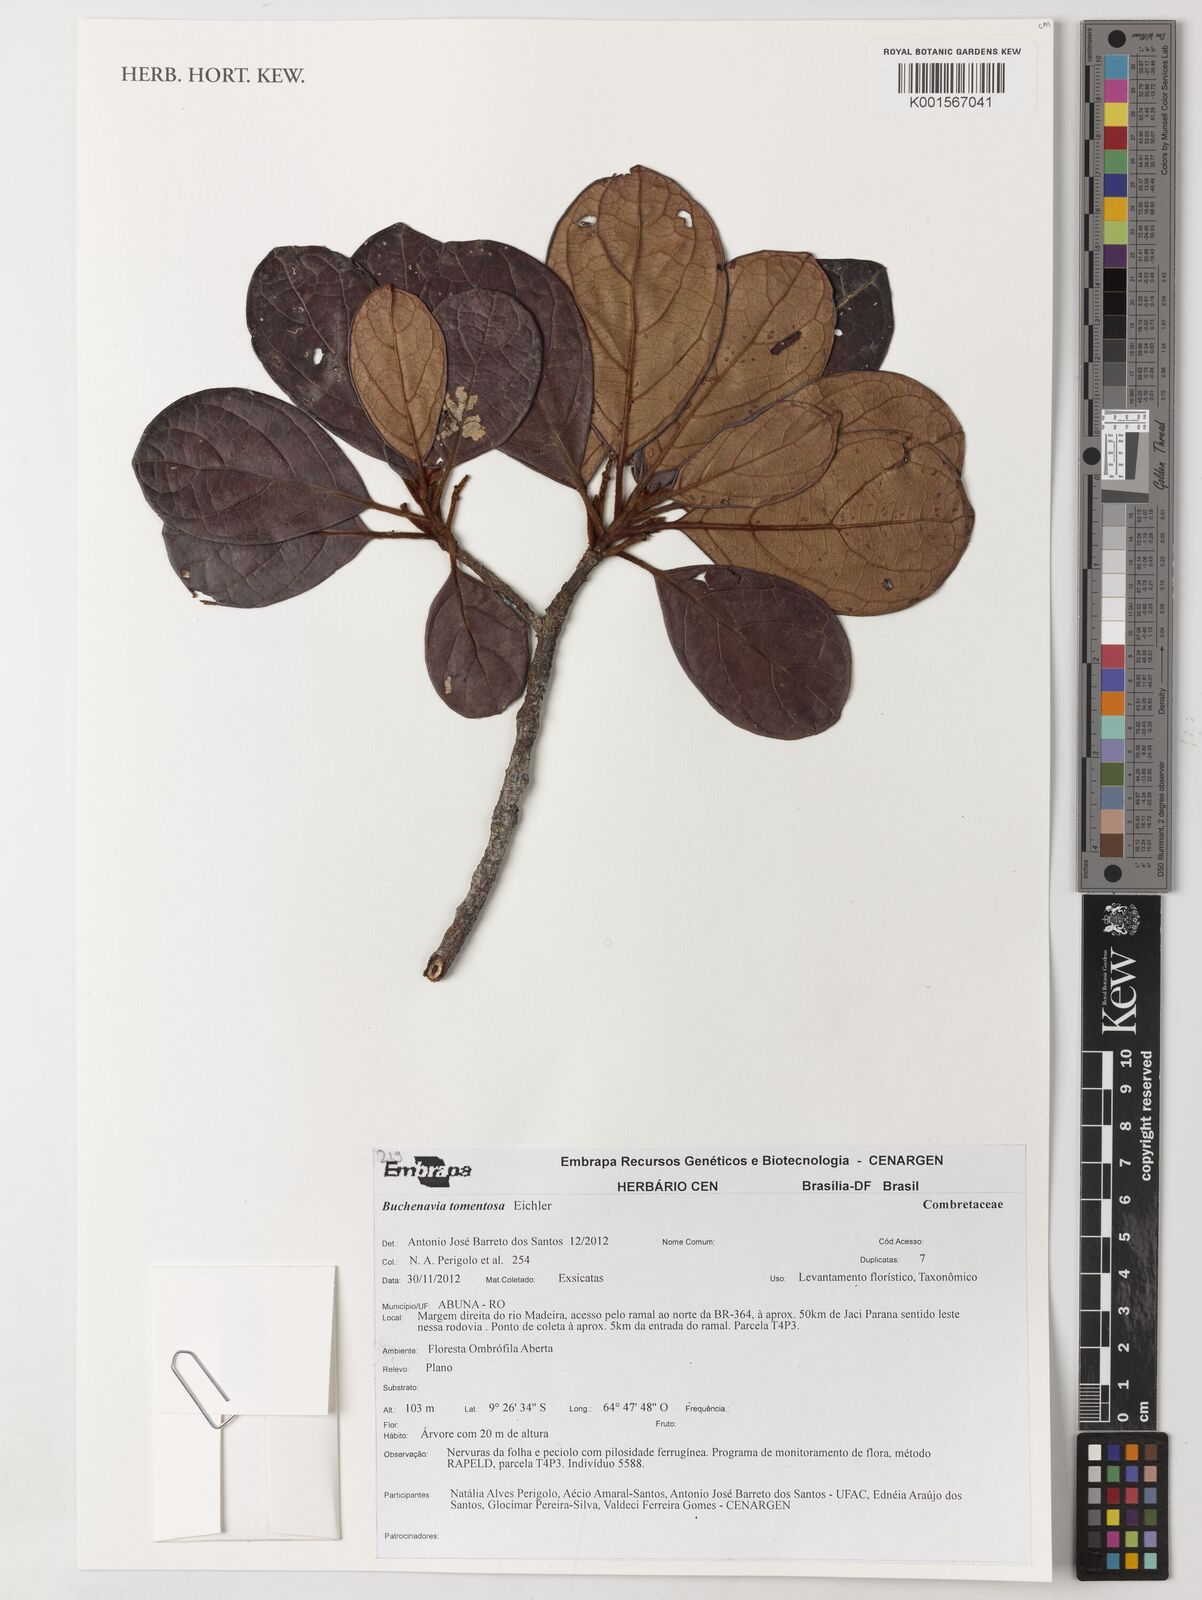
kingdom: Plantae
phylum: Tracheophyta
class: Magnoliopsida
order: Myrtales
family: Combretaceae
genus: Terminalia
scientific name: Terminalia corrugata
